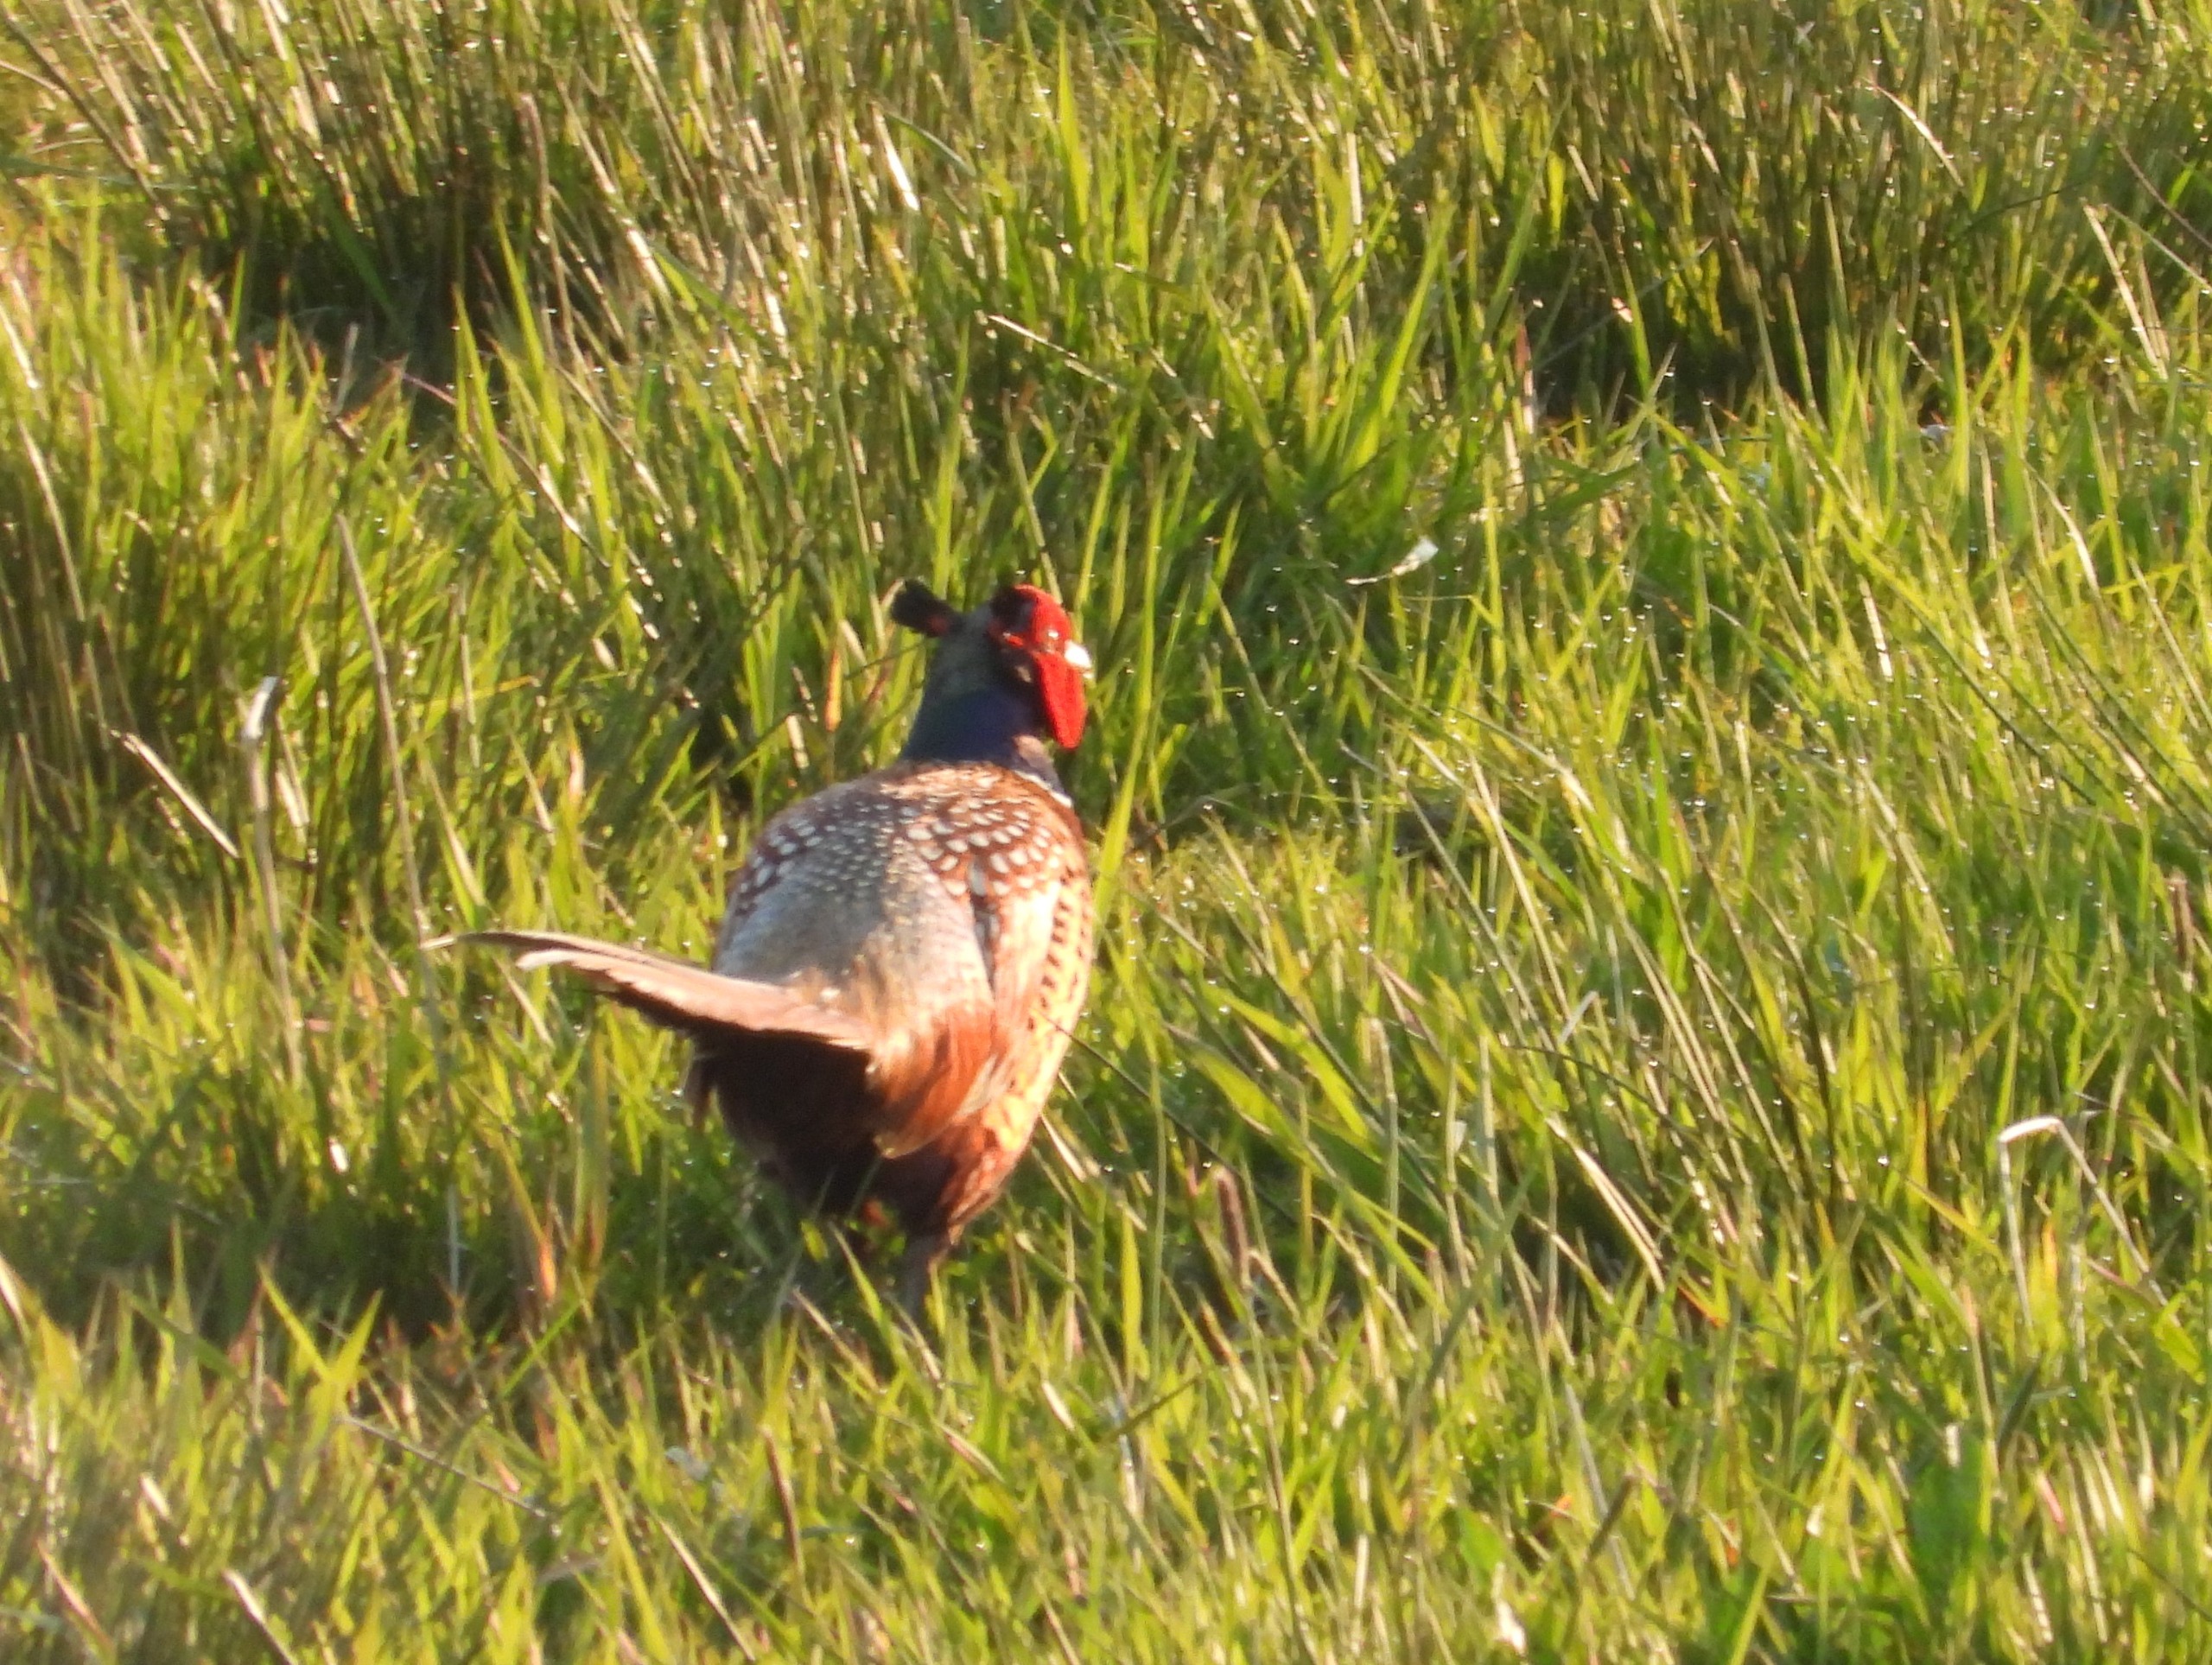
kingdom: Animalia
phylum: Chordata
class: Aves
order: Galliformes
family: Phasianidae
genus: Phasianus
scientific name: Phasianus colchicus
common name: Fasan
